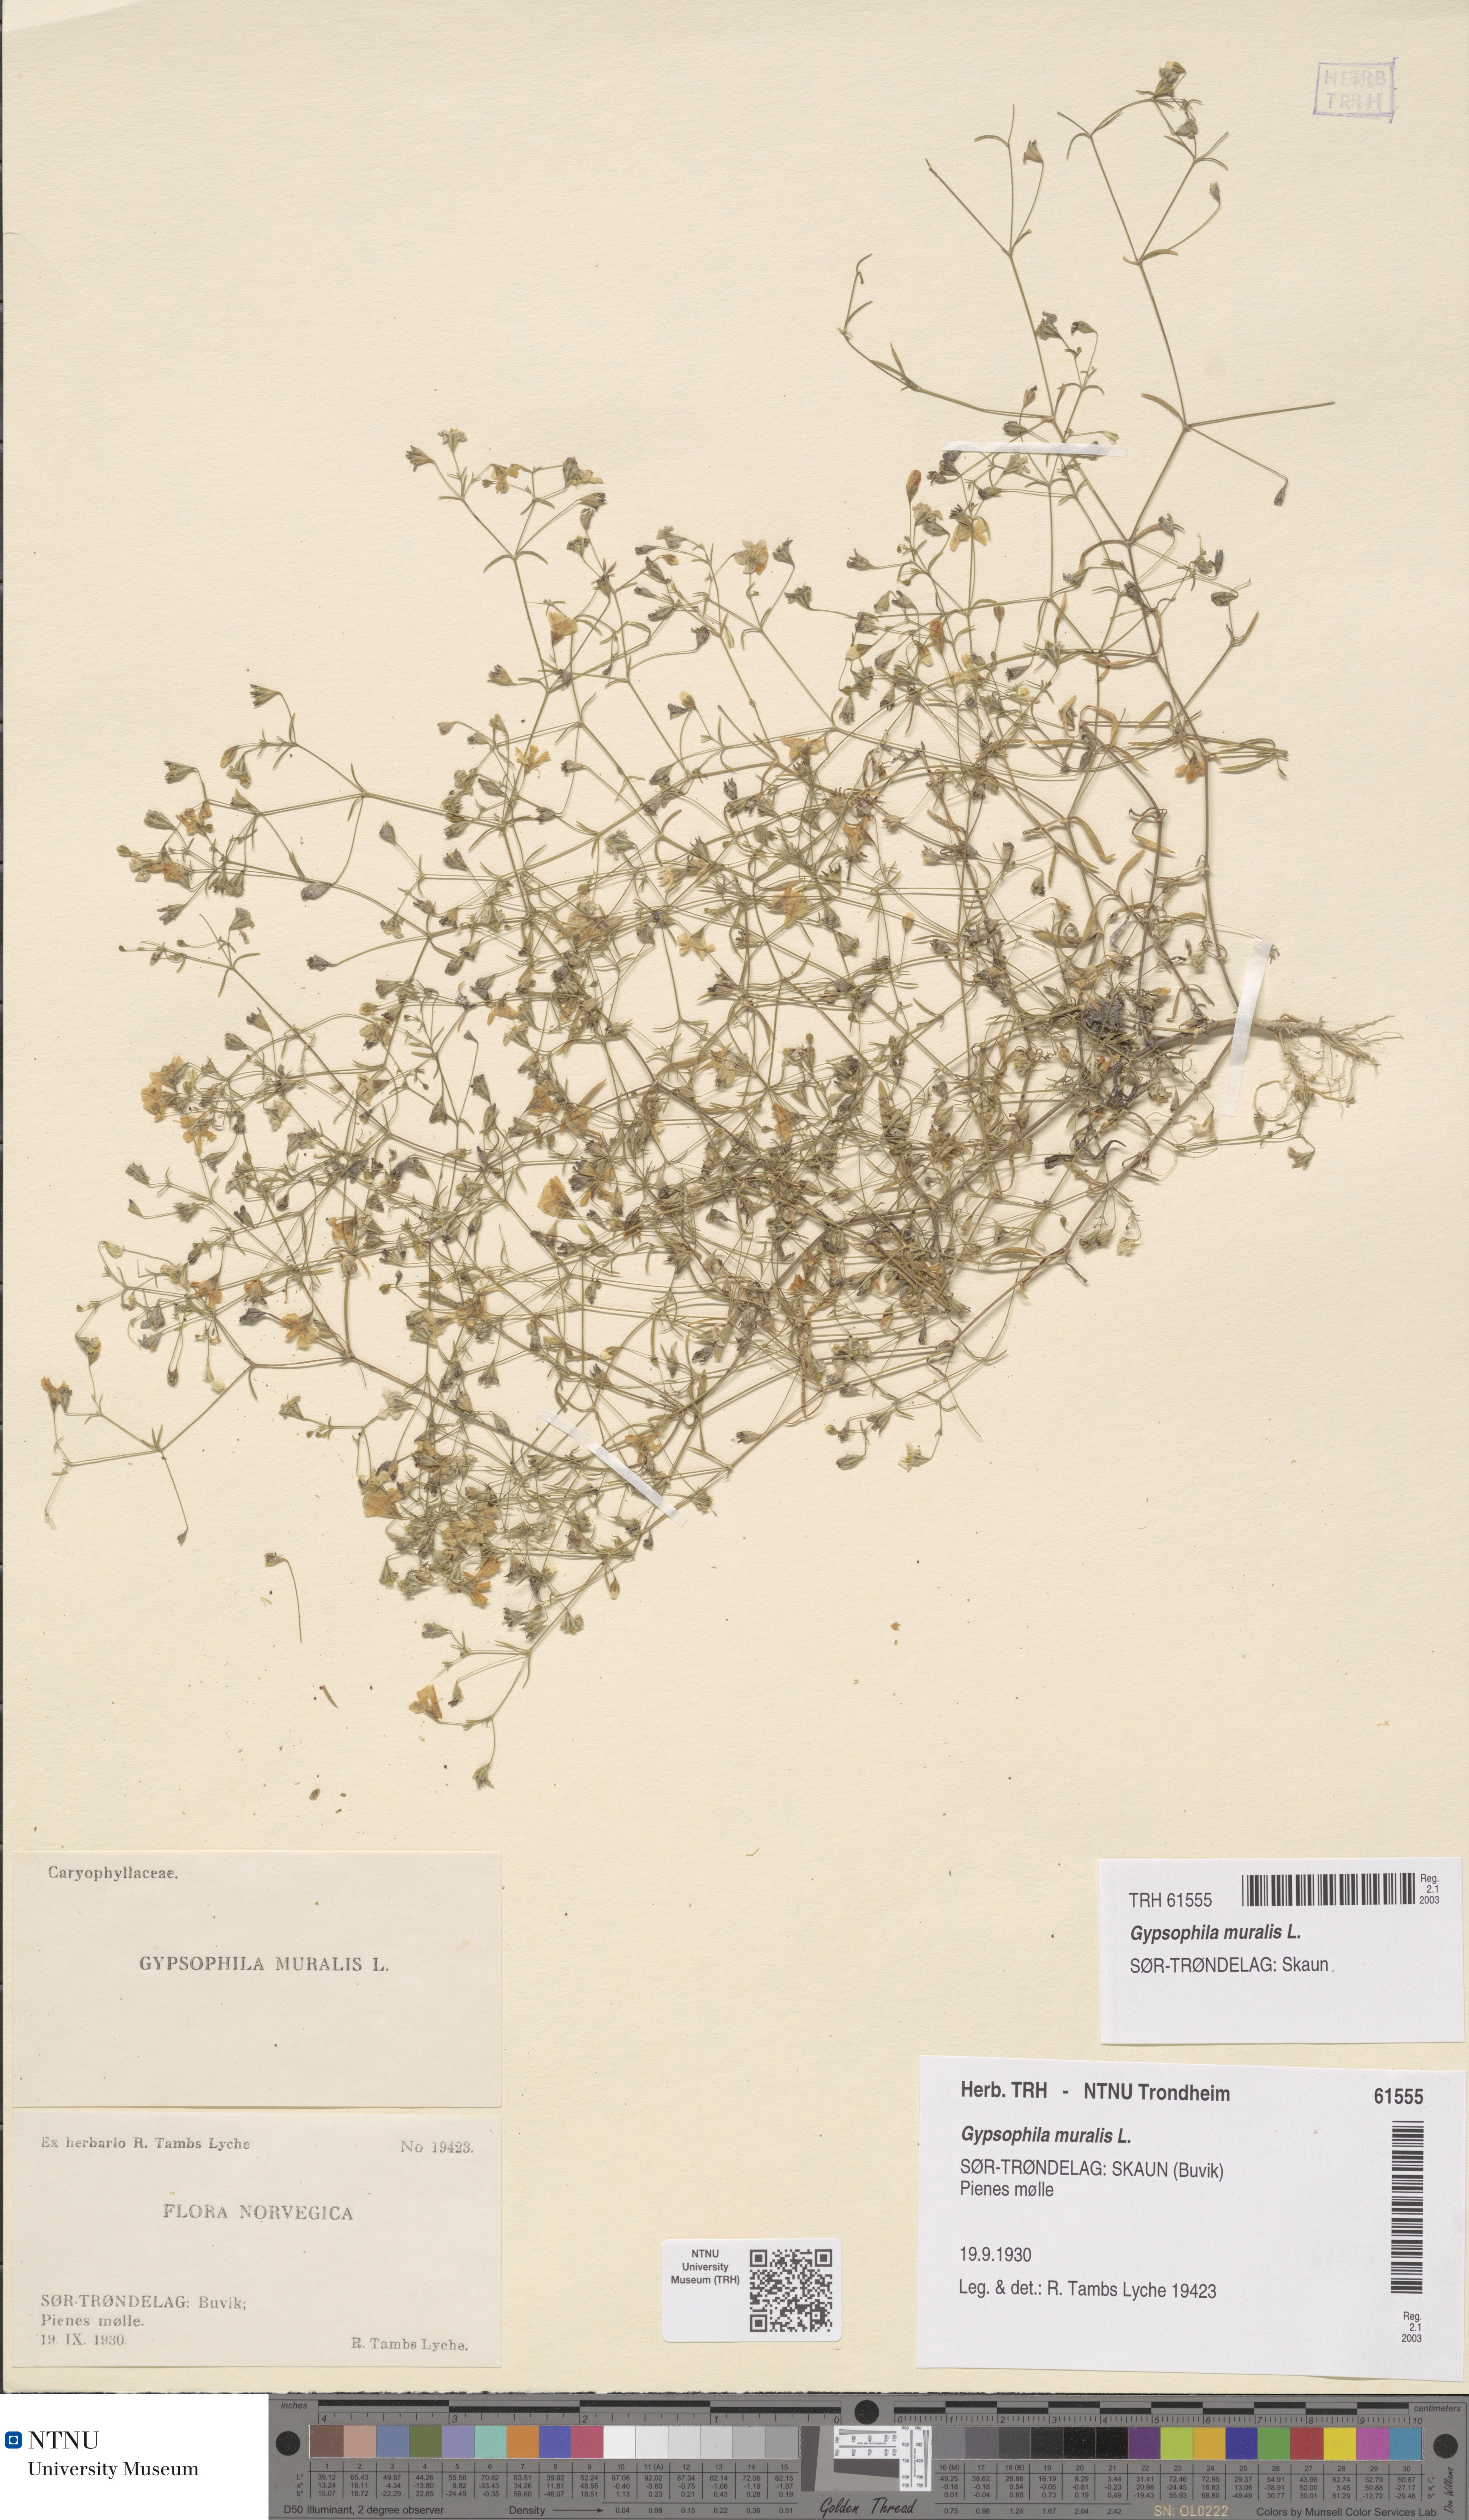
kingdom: Plantae
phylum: Tracheophyta
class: Magnoliopsida
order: Caryophyllales
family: Caryophyllaceae
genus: Psammophiliella
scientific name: Psammophiliella muralis
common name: Cushion baby's-breath
